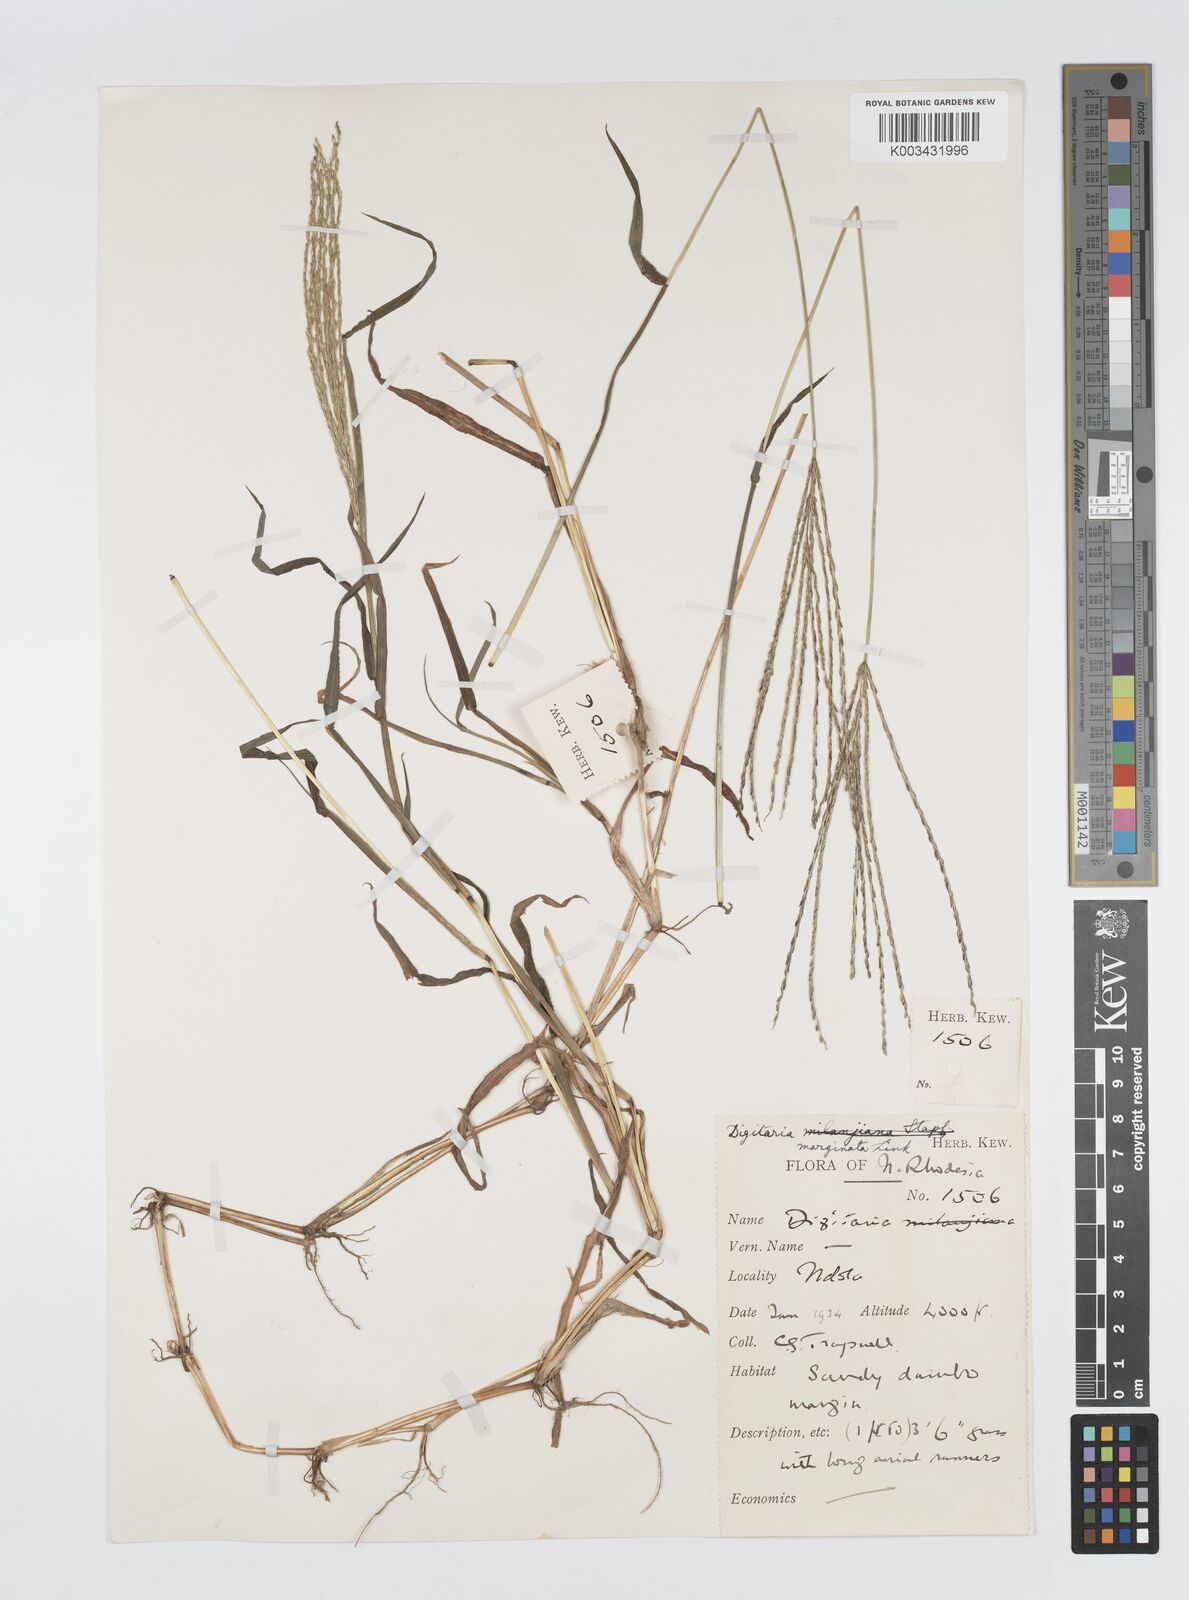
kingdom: Plantae
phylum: Tracheophyta
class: Liliopsida
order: Poales
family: Poaceae
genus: Digitaria
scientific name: Digitaria milanjiana
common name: Madagascar crabgrass
